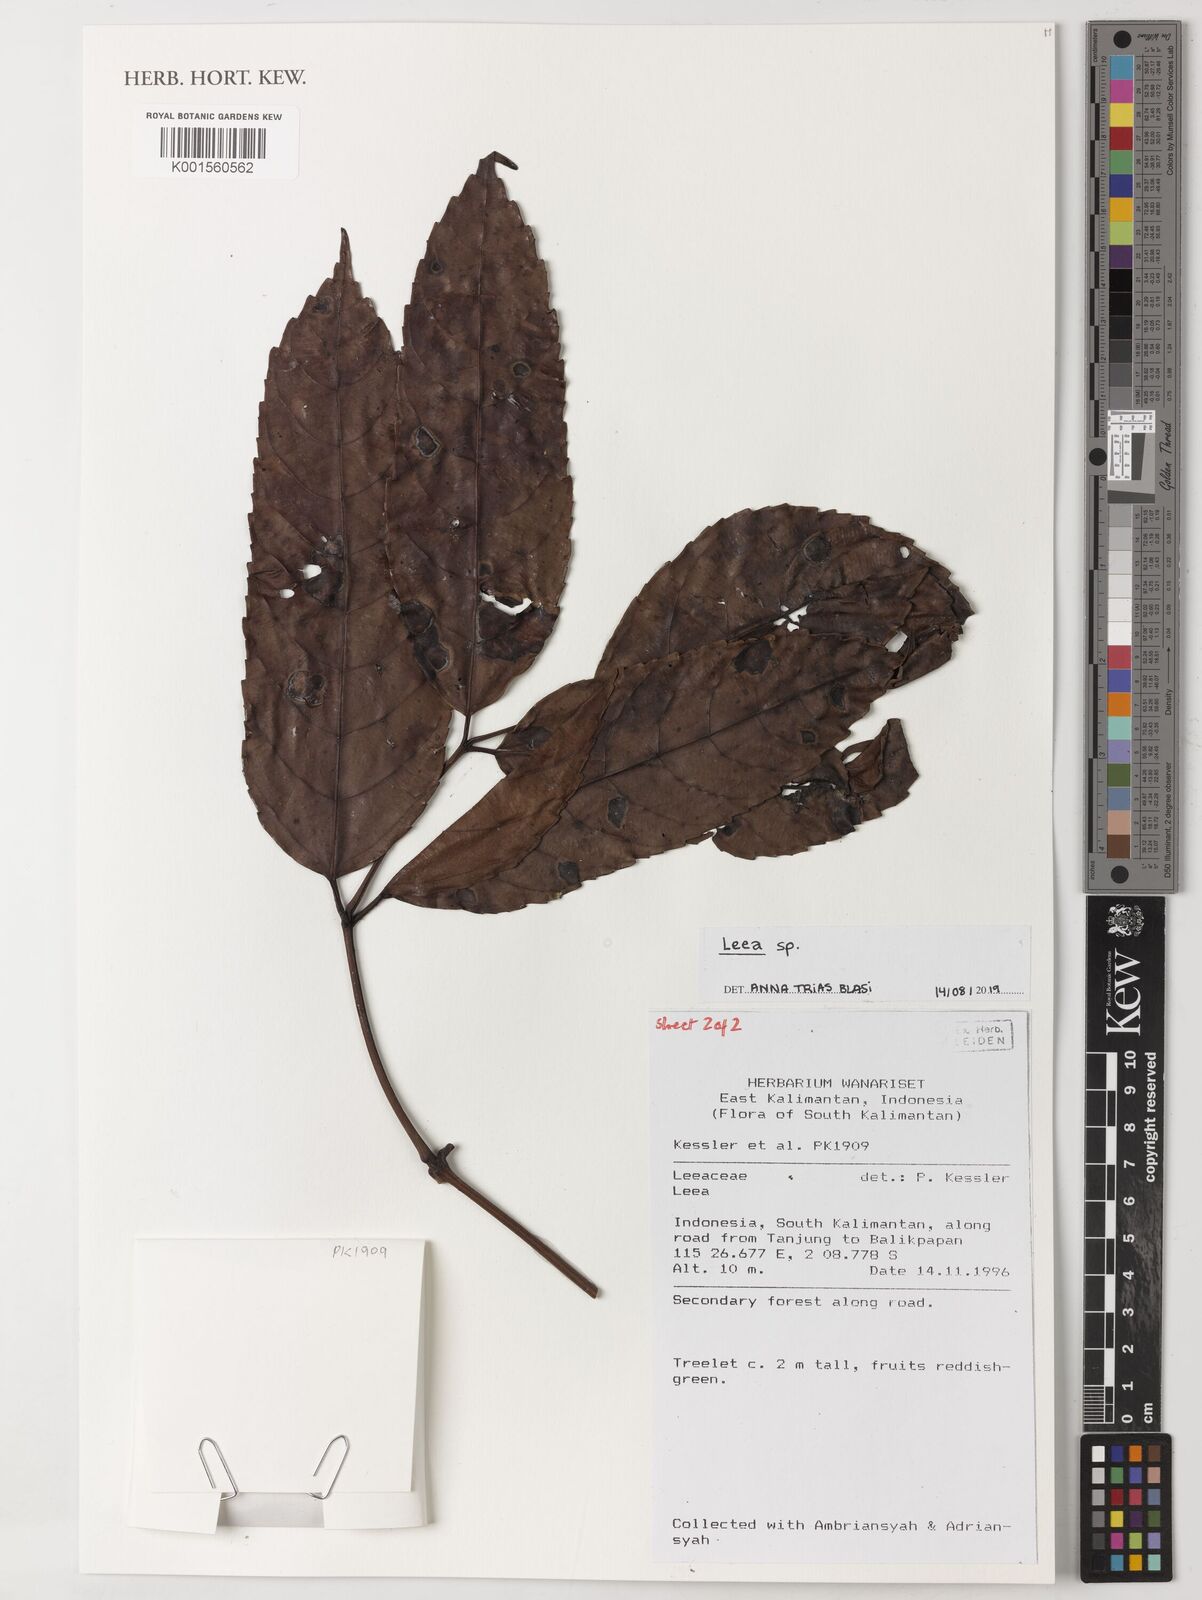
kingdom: Plantae
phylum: Tracheophyta
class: Magnoliopsida
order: Vitales
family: Vitaceae
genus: Leea
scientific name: Leea
